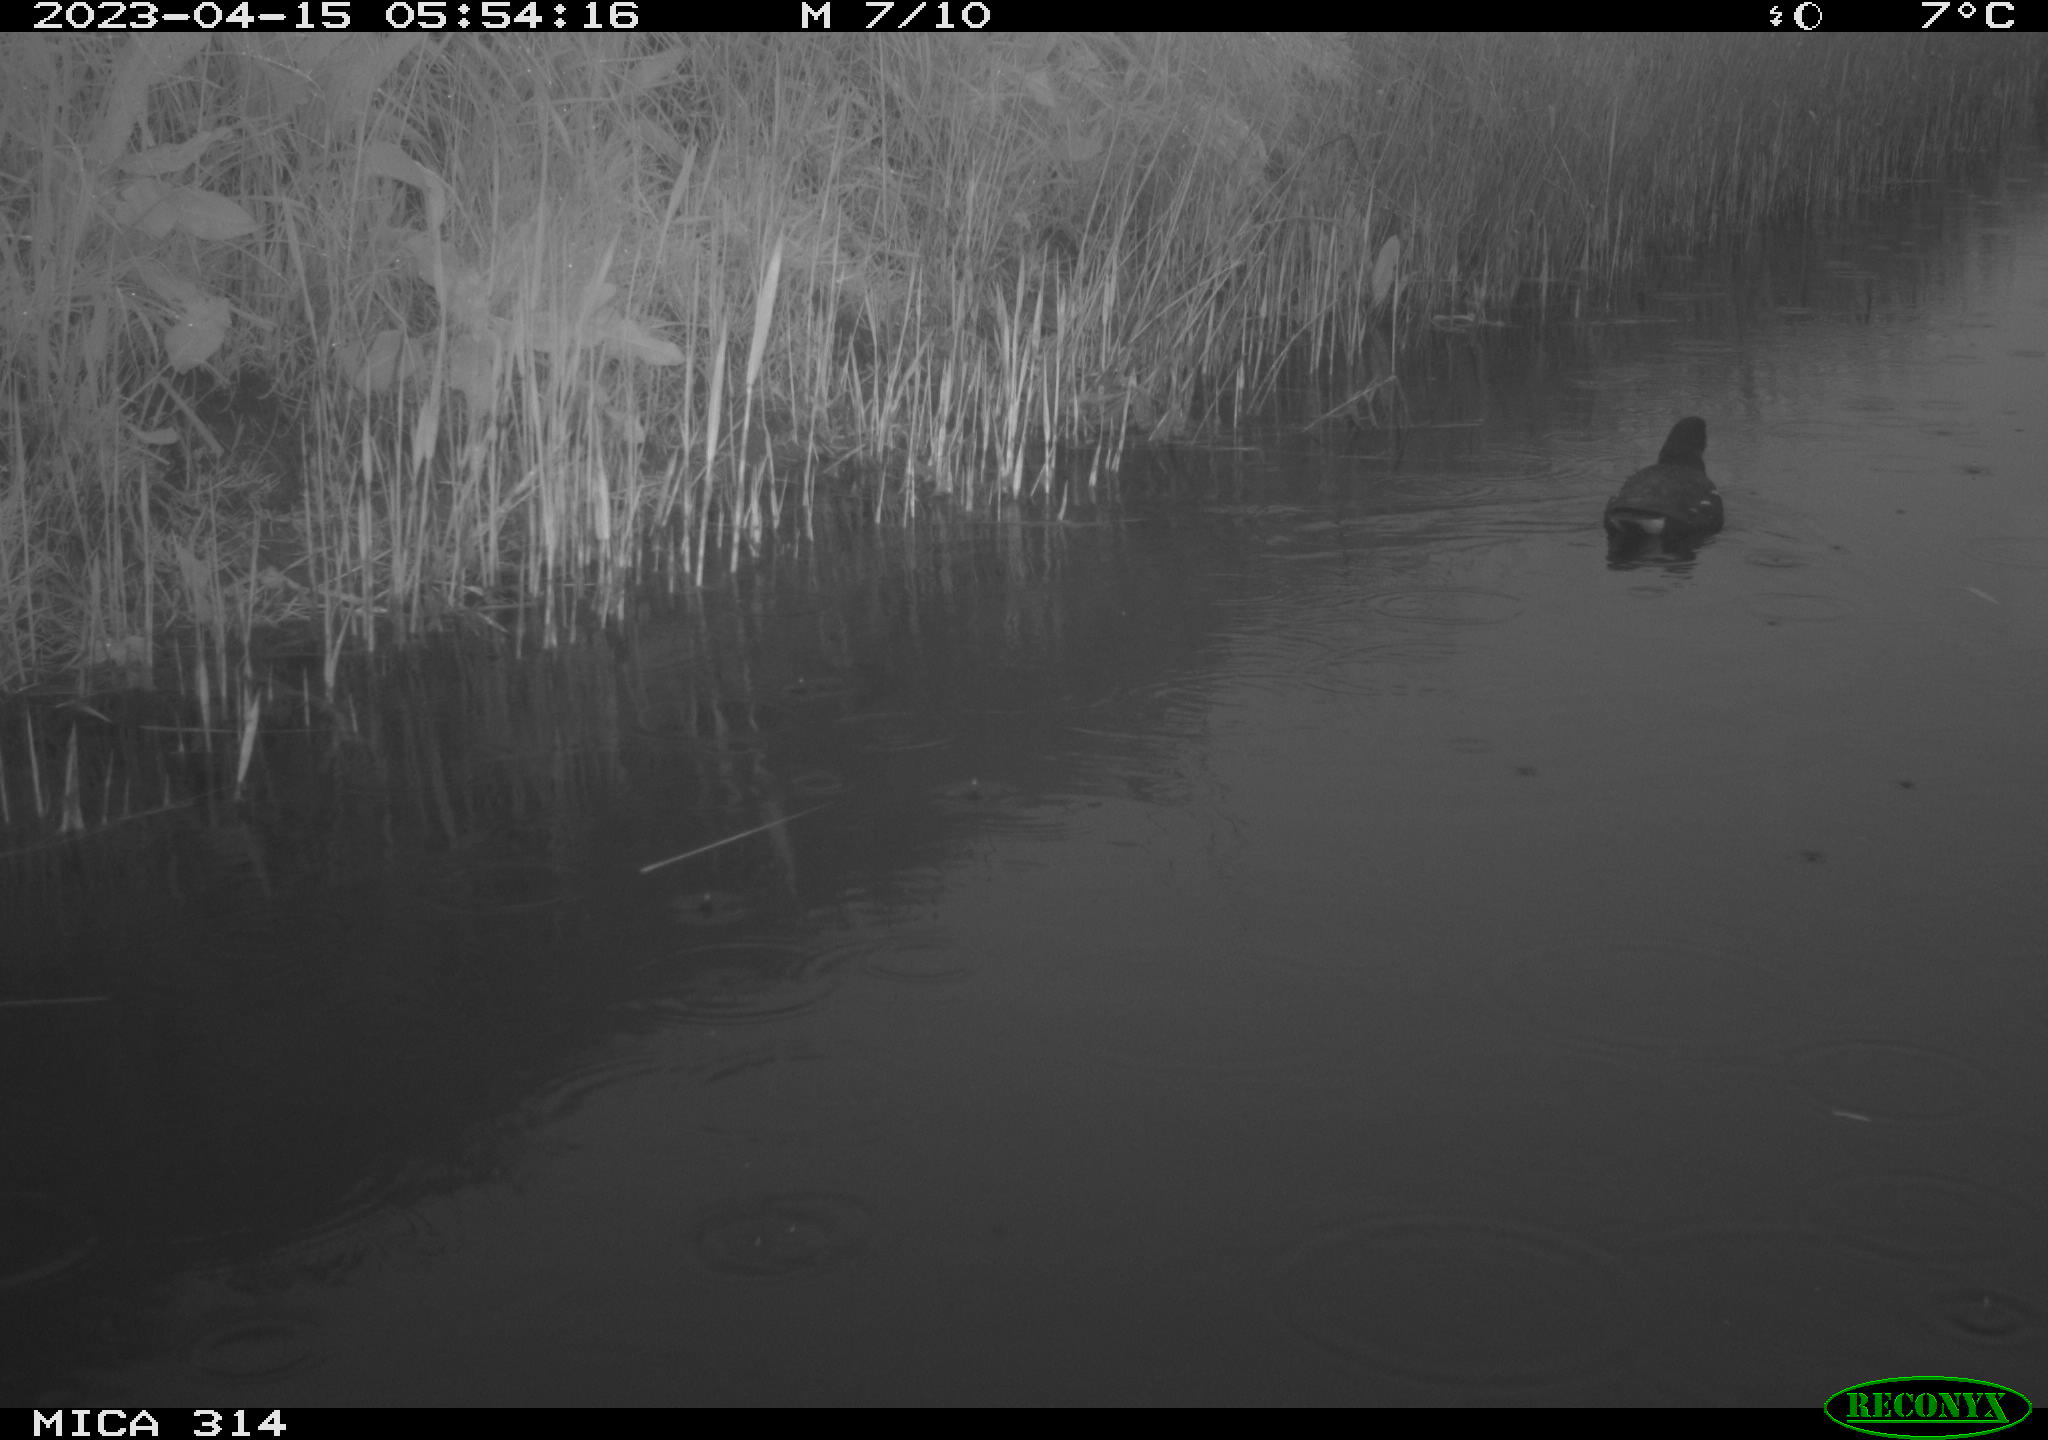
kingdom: Animalia
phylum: Chordata
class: Aves
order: Gruiformes
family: Rallidae
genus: Gallinula
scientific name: Gallinula chloropus
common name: Common moorhen
